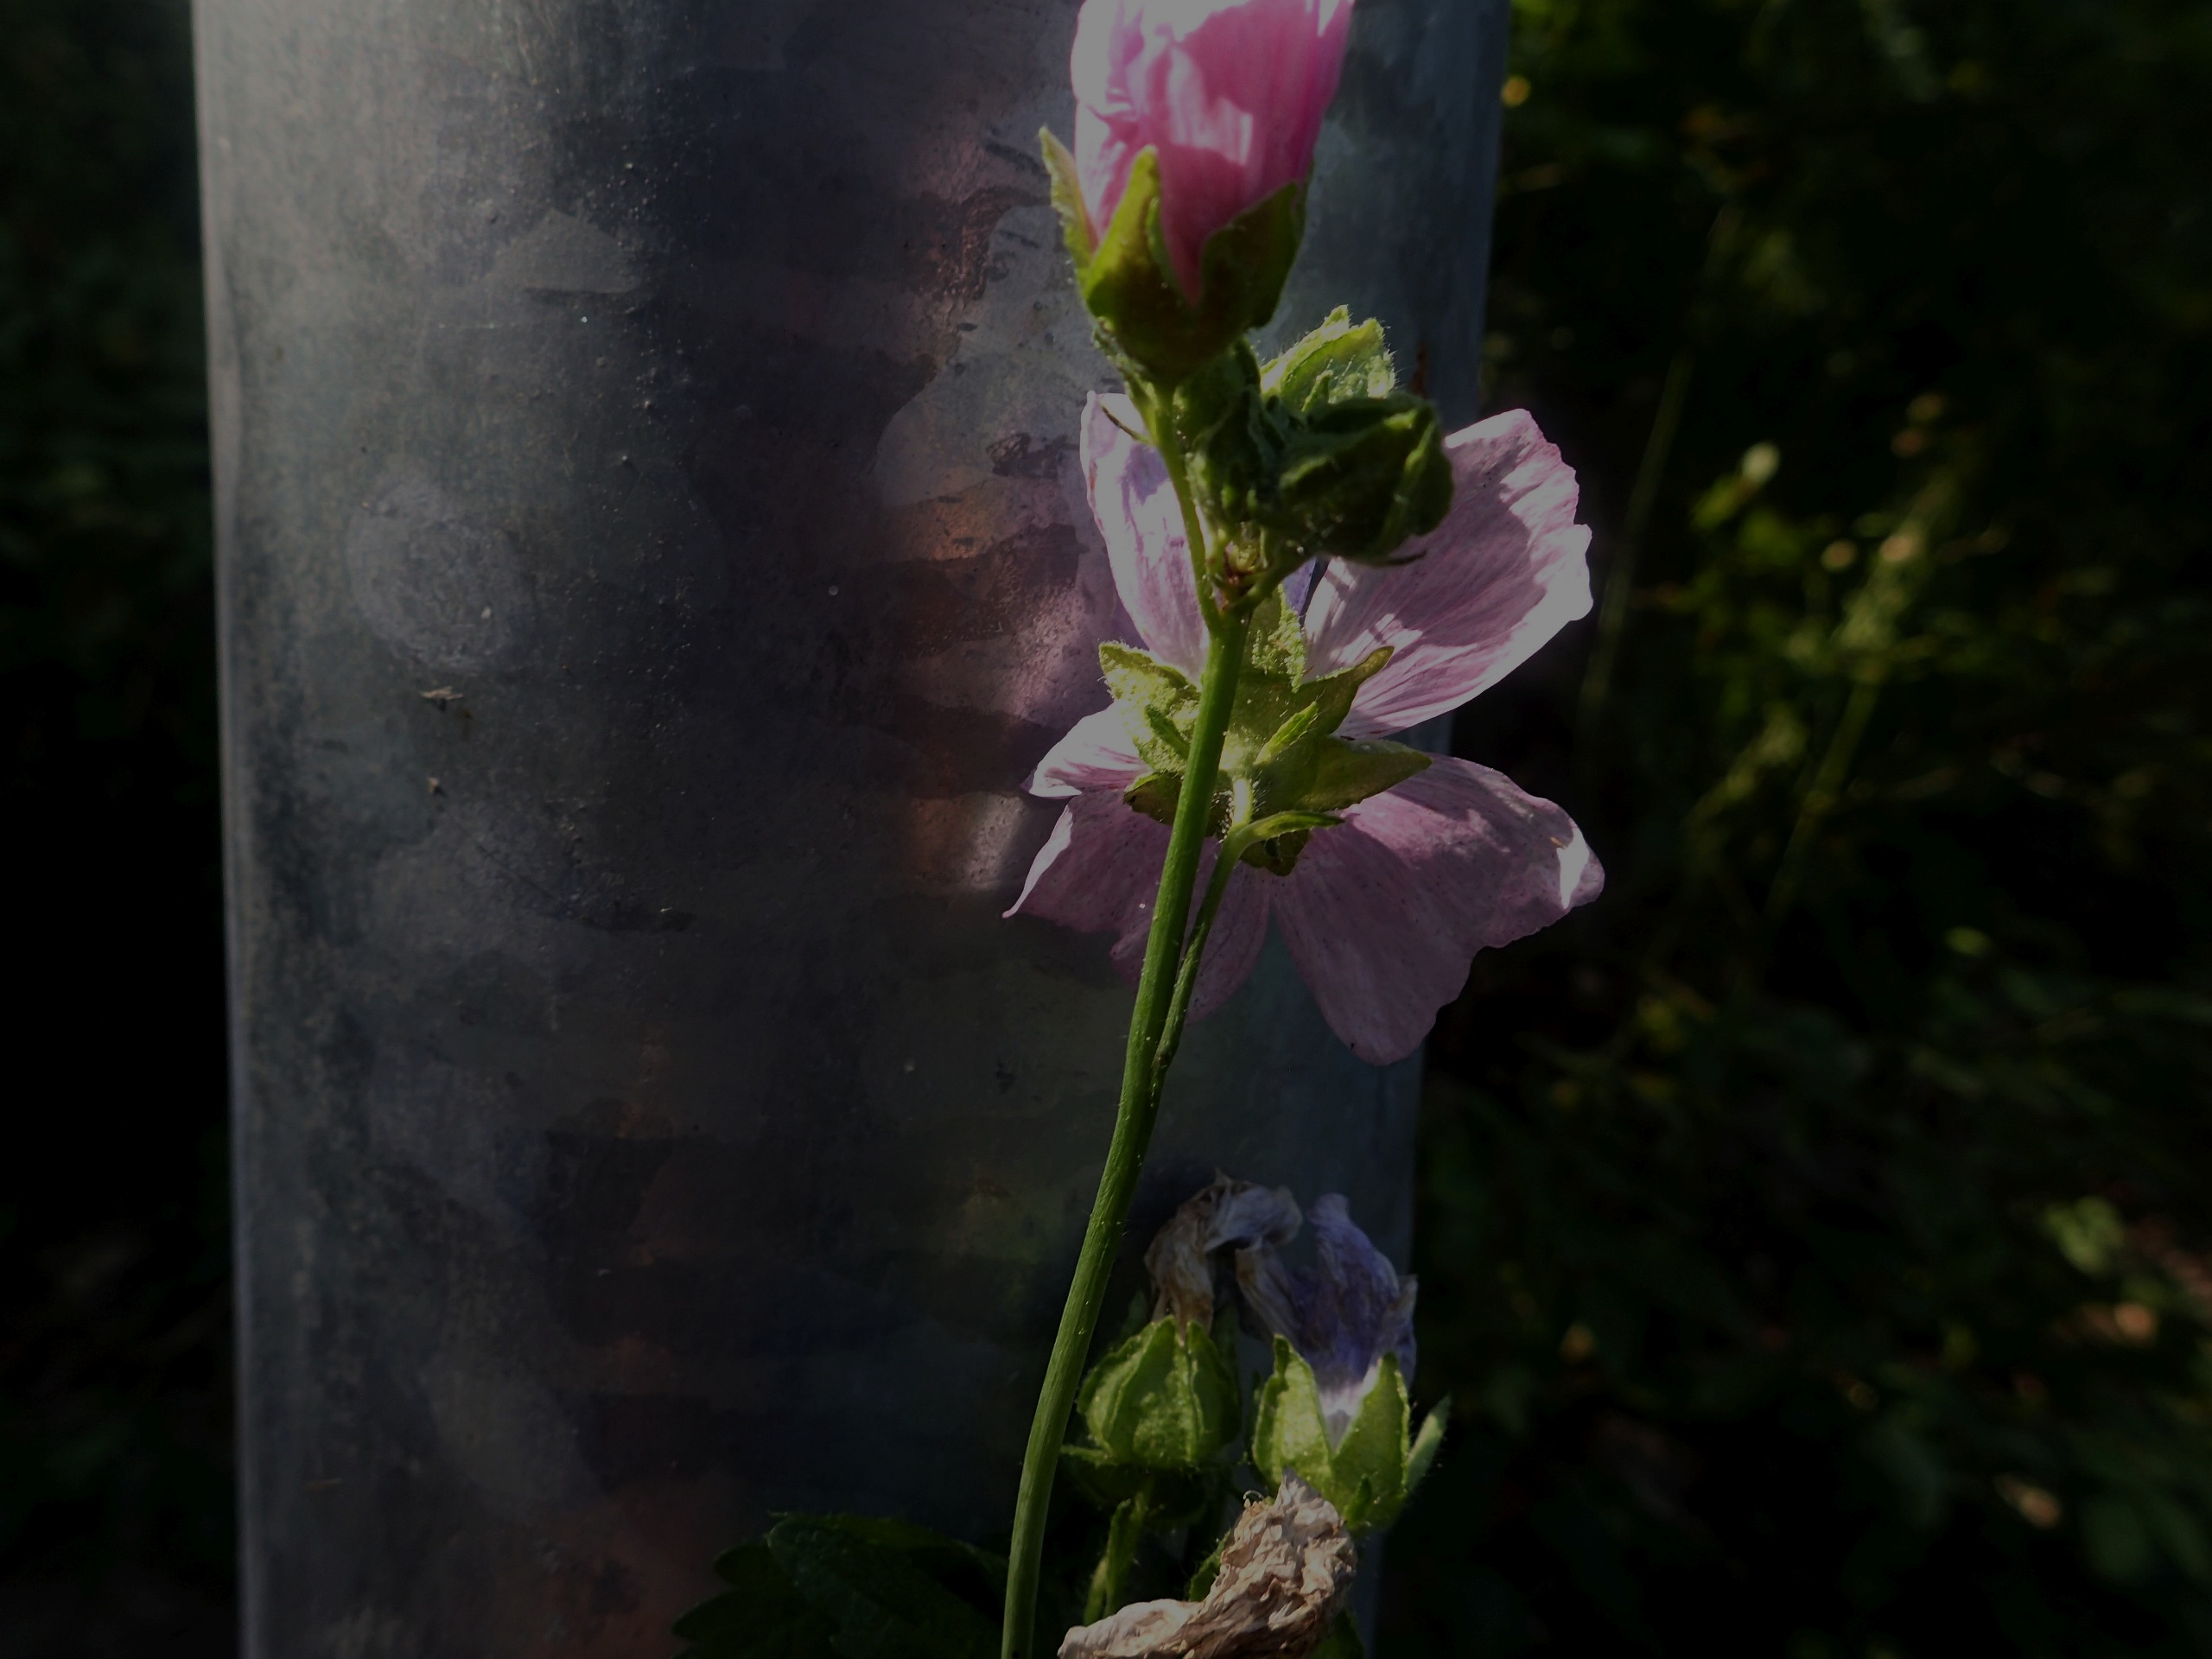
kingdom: Plantae
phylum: Tracheophyta
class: Magnoliopsida
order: Malvales
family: Malvaceae
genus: Malva
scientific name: Malva moschata
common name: Moskus-katost
